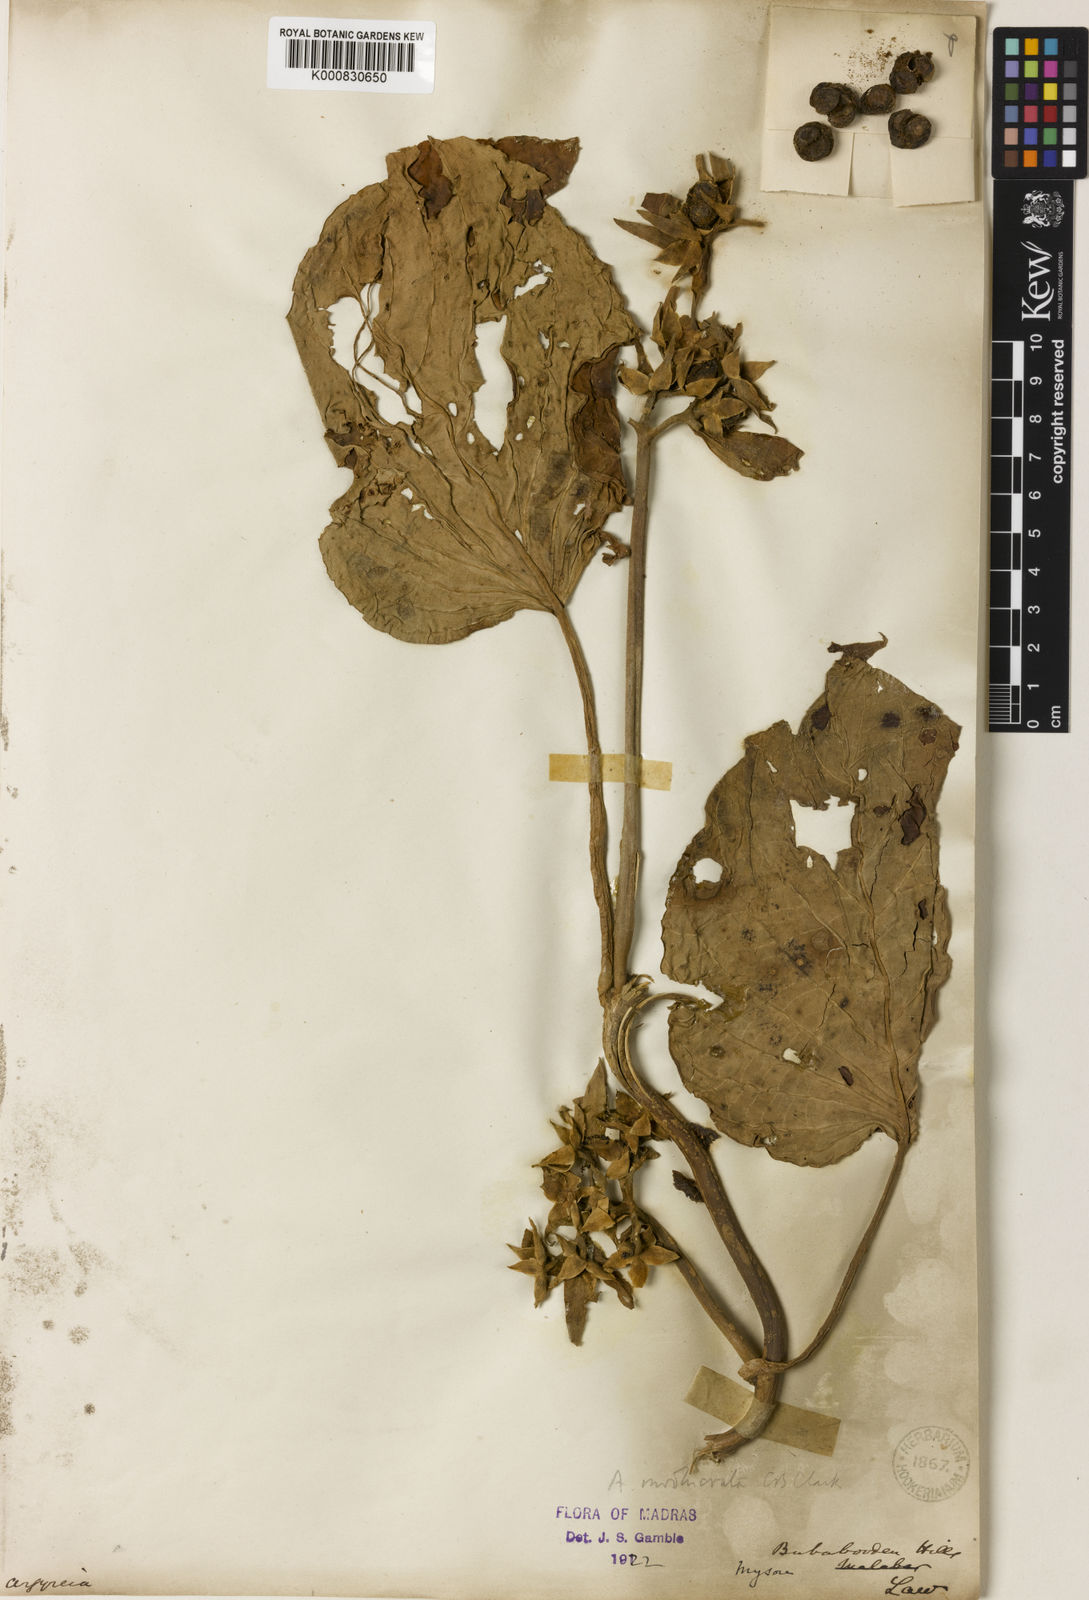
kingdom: Plantae
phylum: Tracheophyta
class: Magnoliopsida
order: Solanales
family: Convolvulaceae
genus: Argyreia
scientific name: Argyreia involucrata
